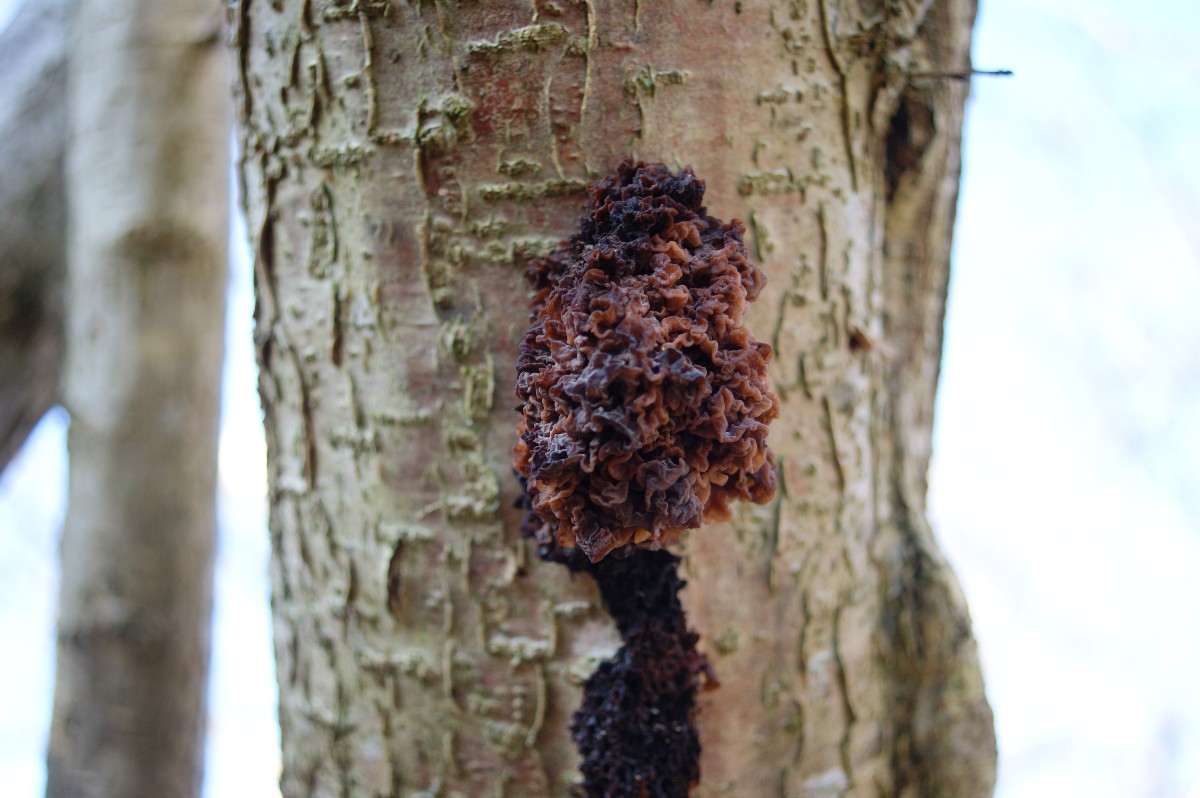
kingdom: Fungi
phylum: Basidiomycota
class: Tremellomycetes
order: Tremellales
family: Tremellaceae
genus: Phaeotremella
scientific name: Phaeotremella frondosa
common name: kæmpe-bævresvamp
